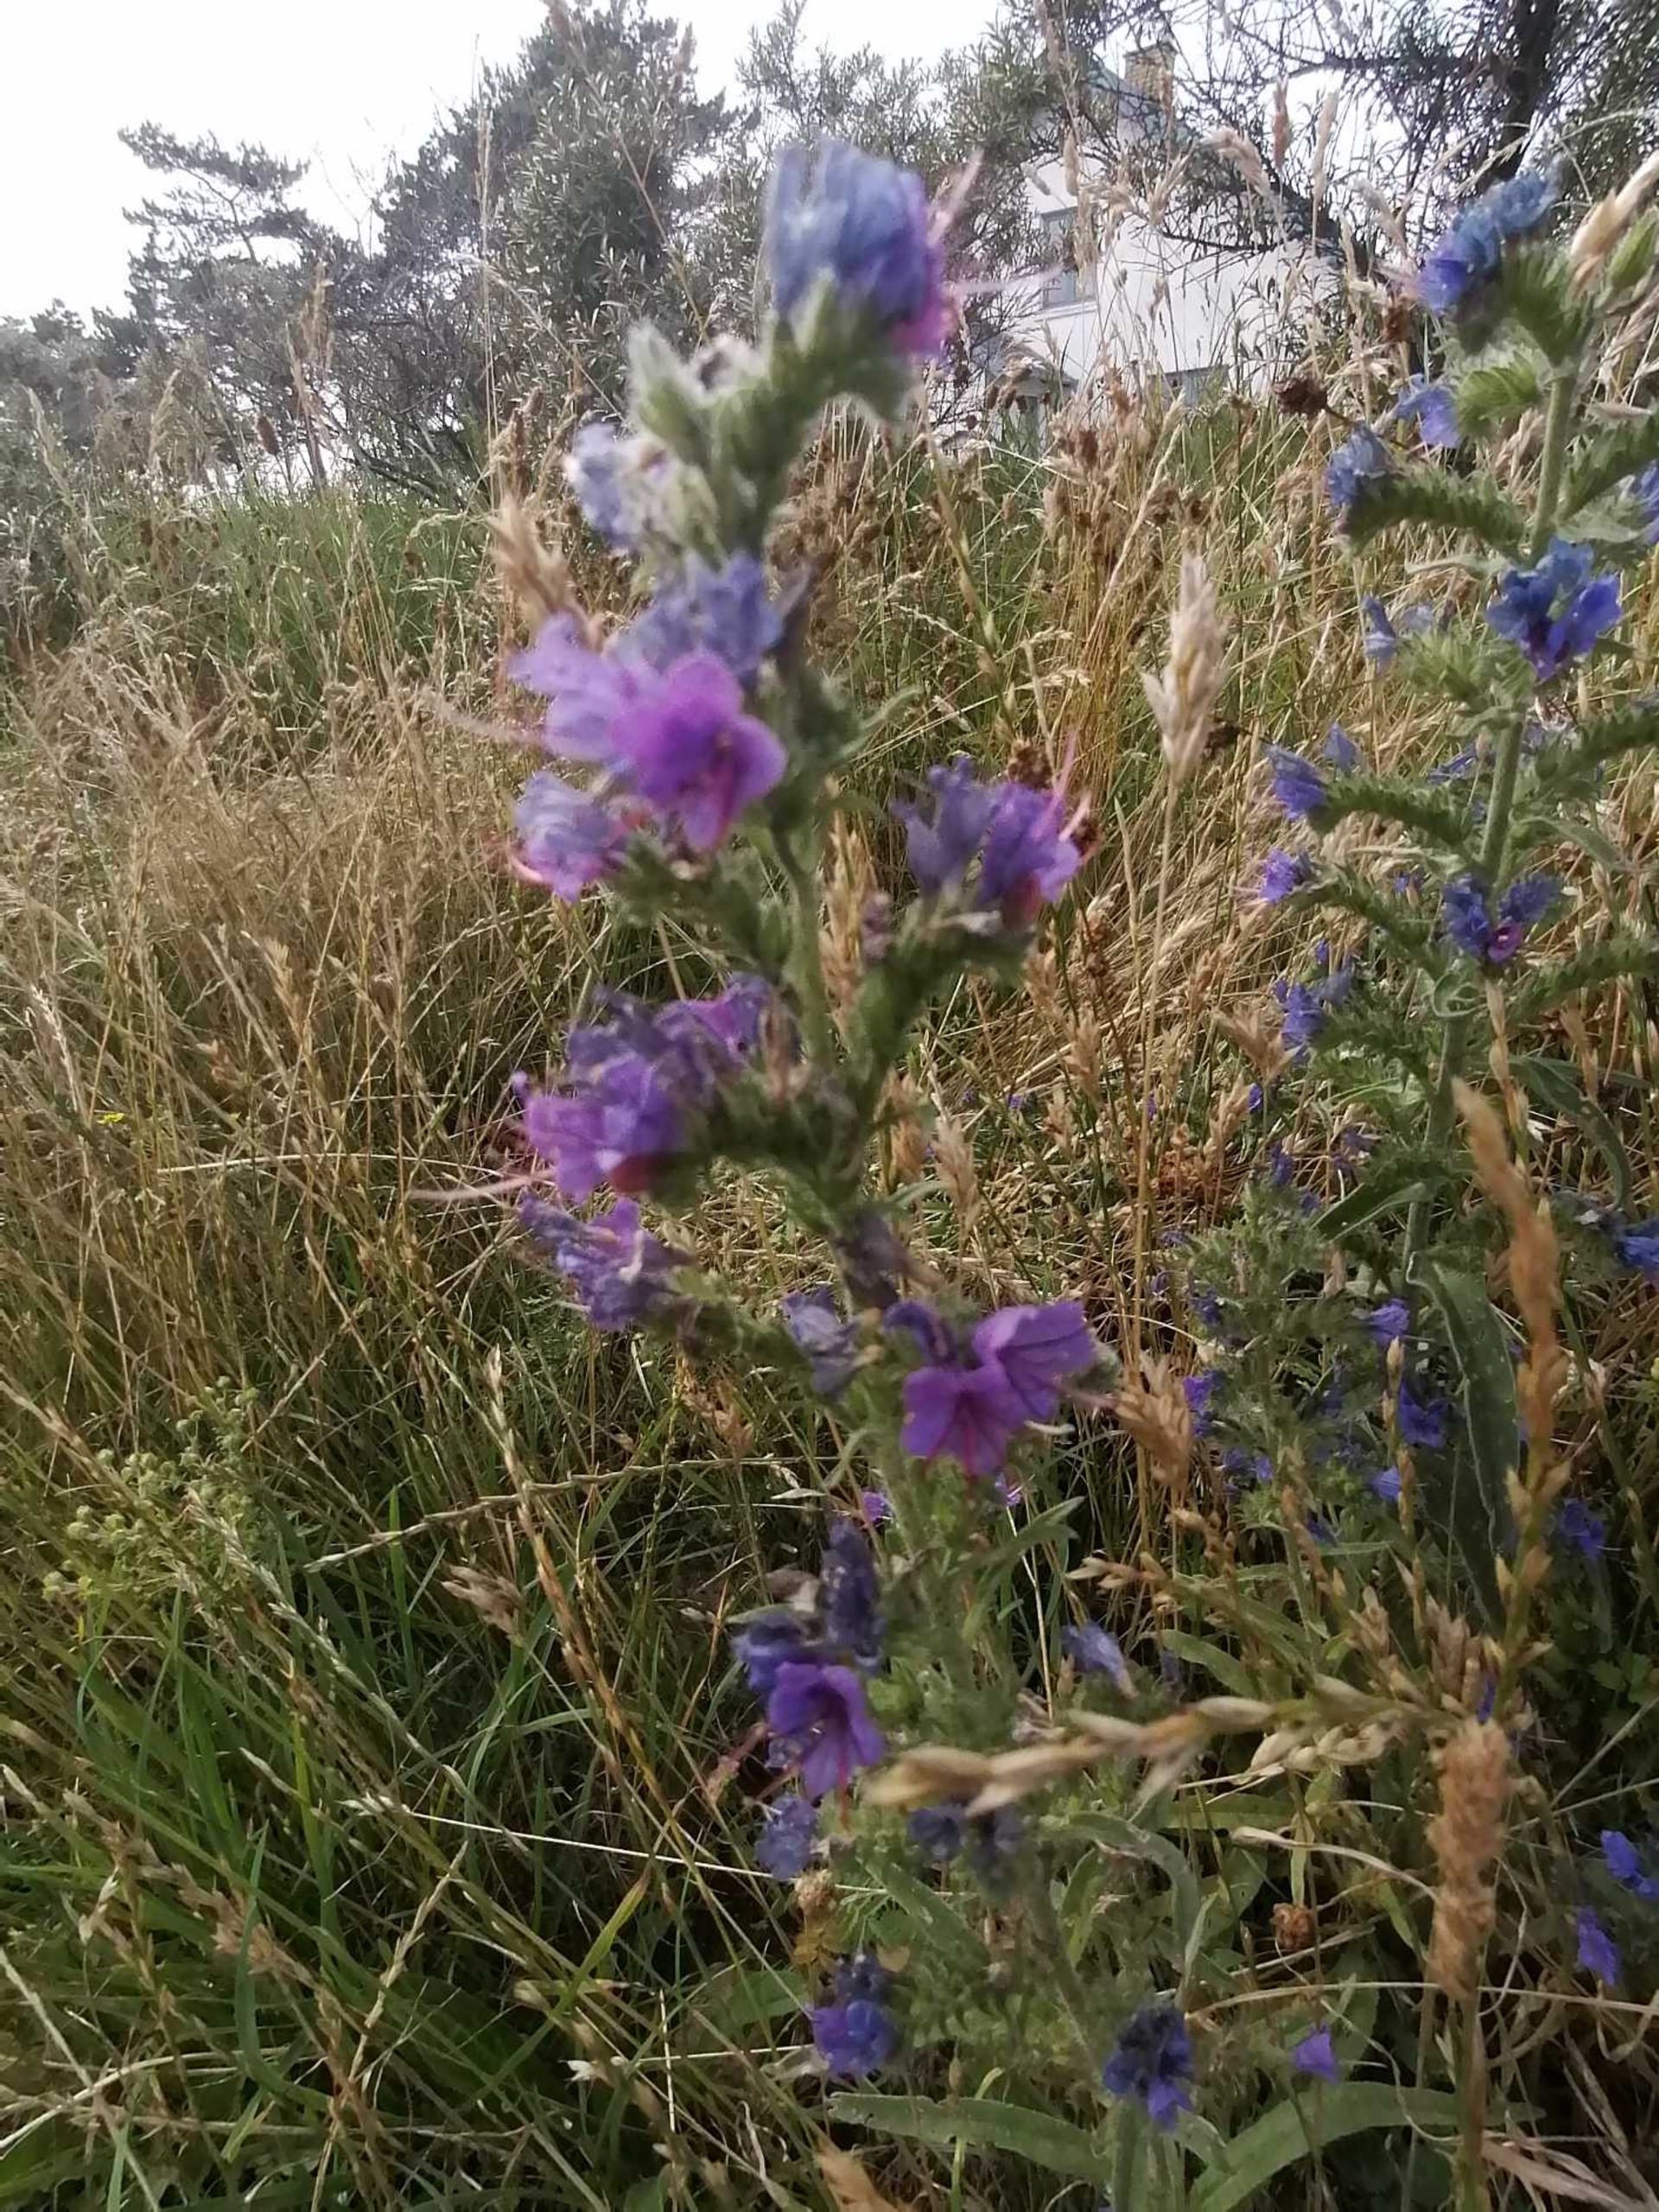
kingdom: Plantae
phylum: Tracheophyta
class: Magnoliopsida
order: Boraginales
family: Boraginaceae
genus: Echium
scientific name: Echium vulgare
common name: Slangehoved
